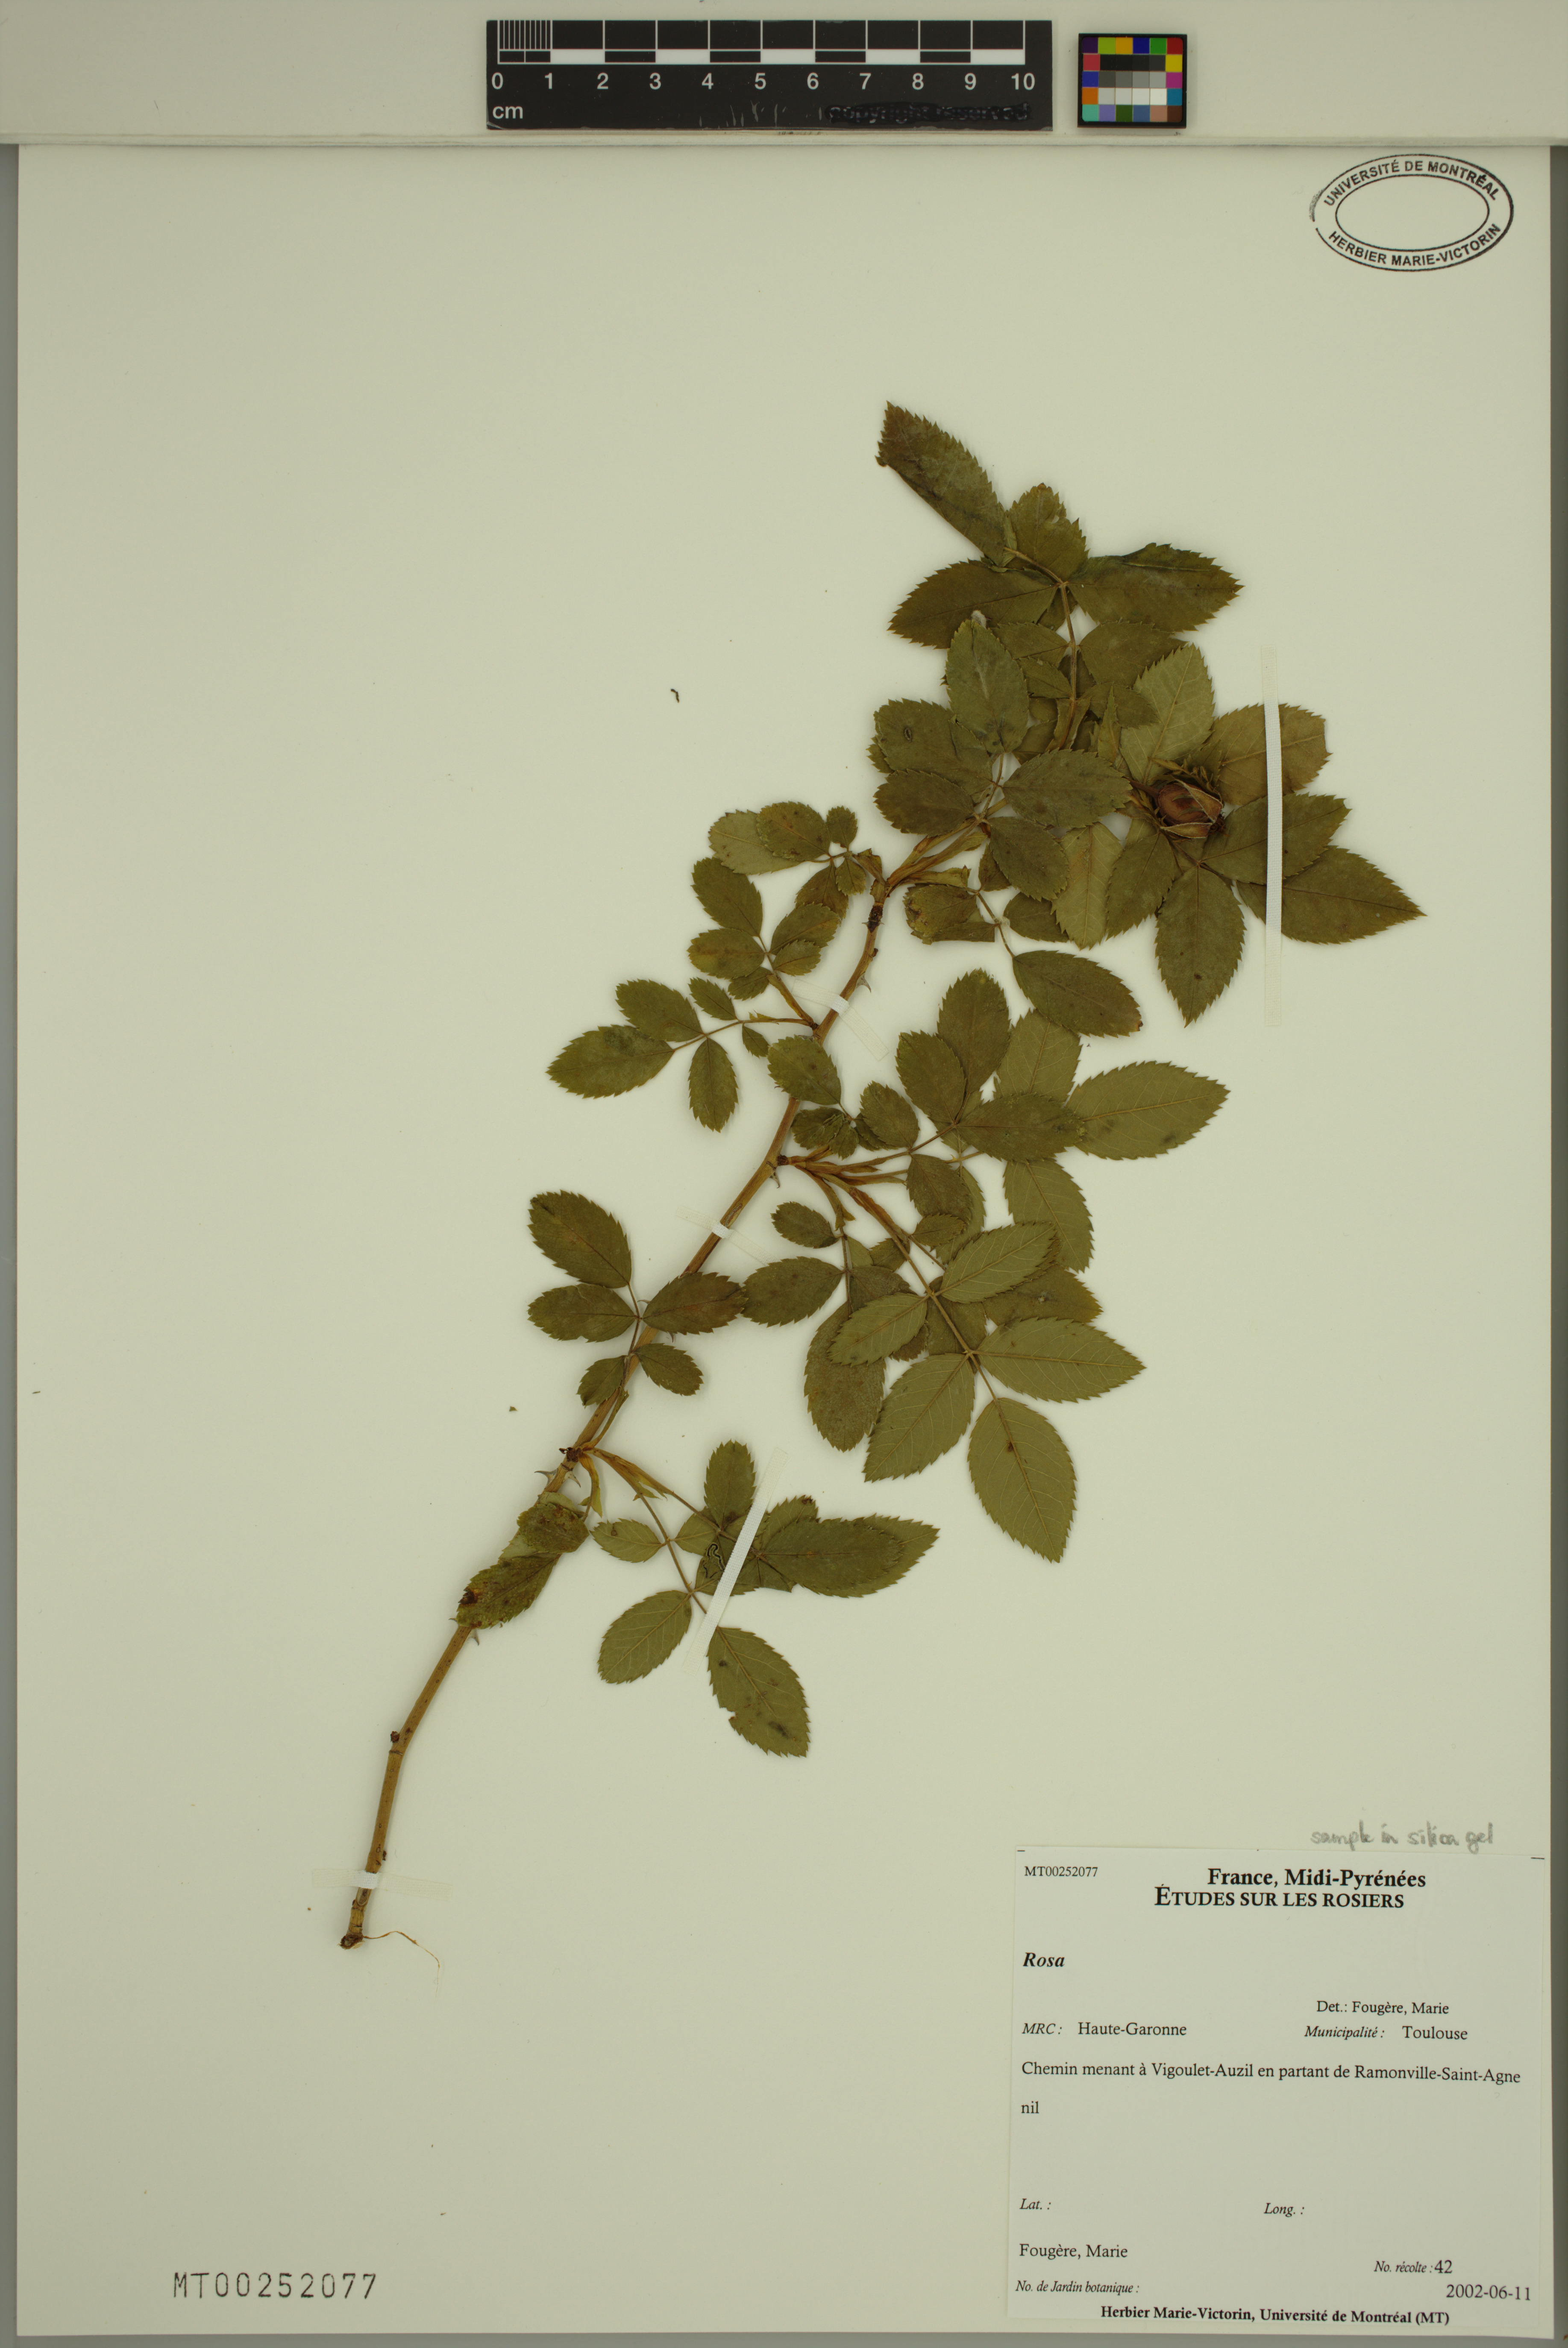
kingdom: Plantae
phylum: Tracheophyta
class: Magnoliopsida
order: Rosales
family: Rosaceae
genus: Rosa
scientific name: Rosa
